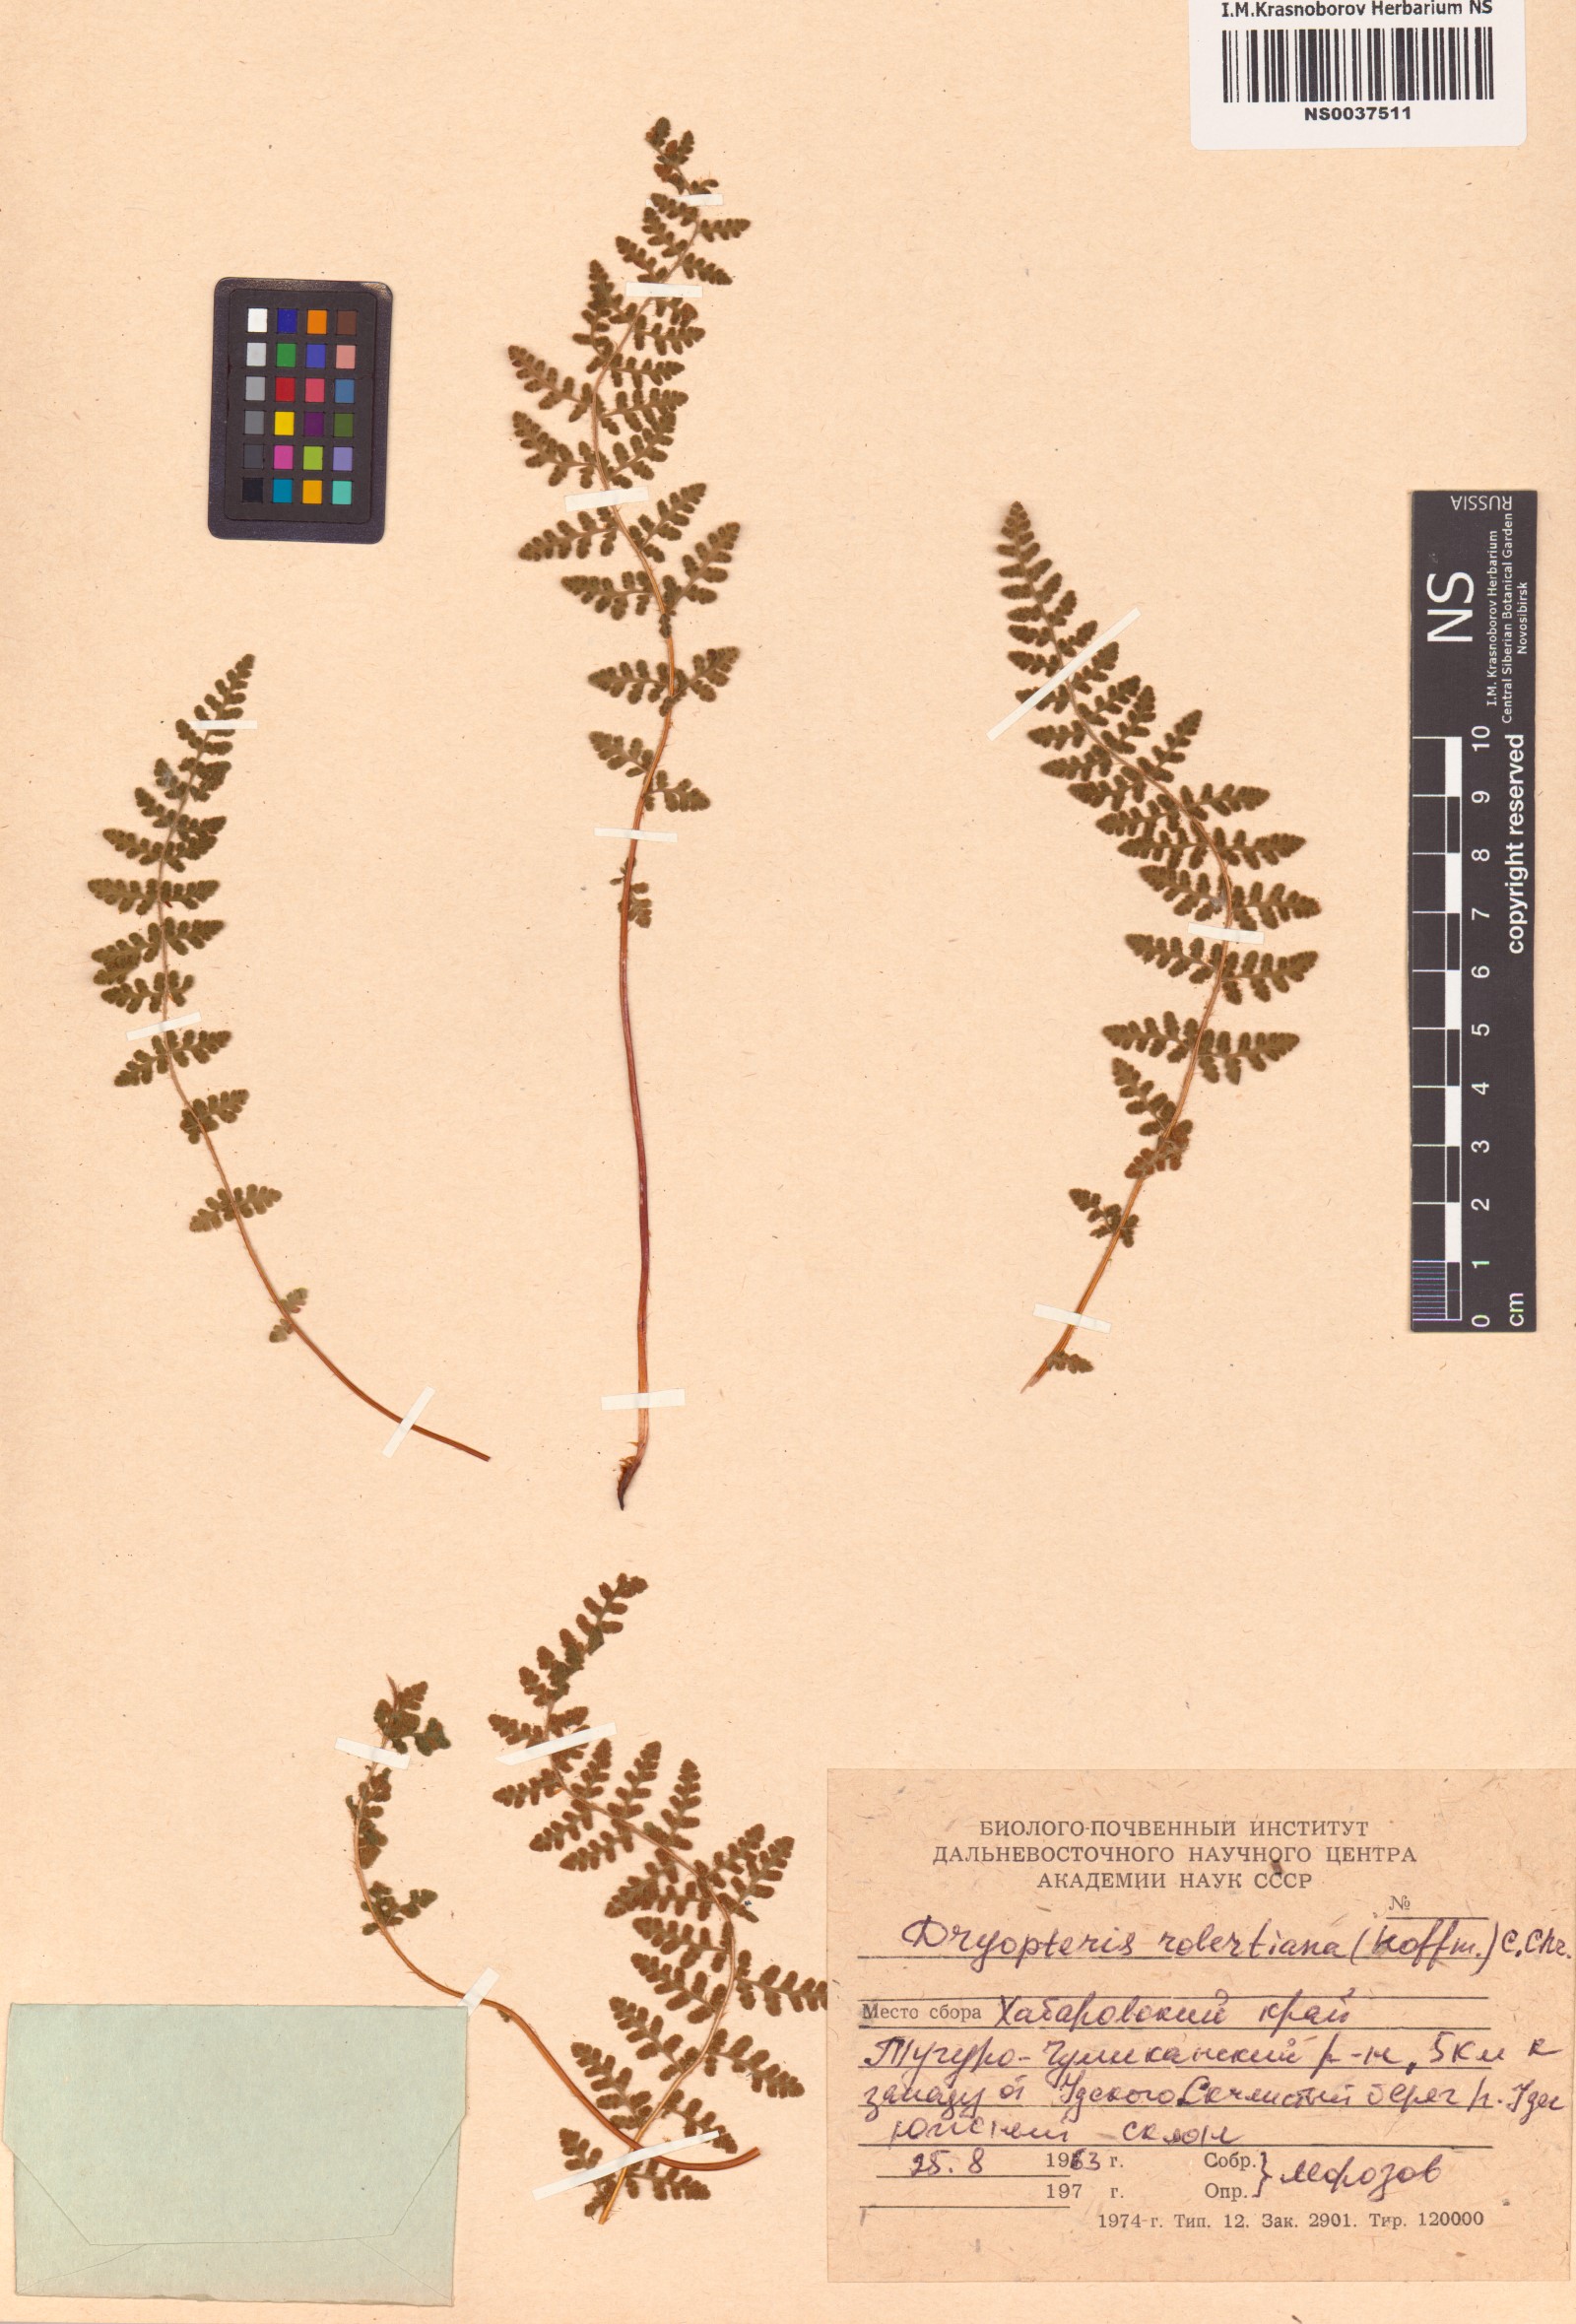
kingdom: Plantae
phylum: Tracheophyta
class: Polypodiopsida
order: Polypodiales
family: Cystopteridaceae
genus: Gymnocarpium
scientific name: Gymnocarpium robertianum
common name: Limestone fern
